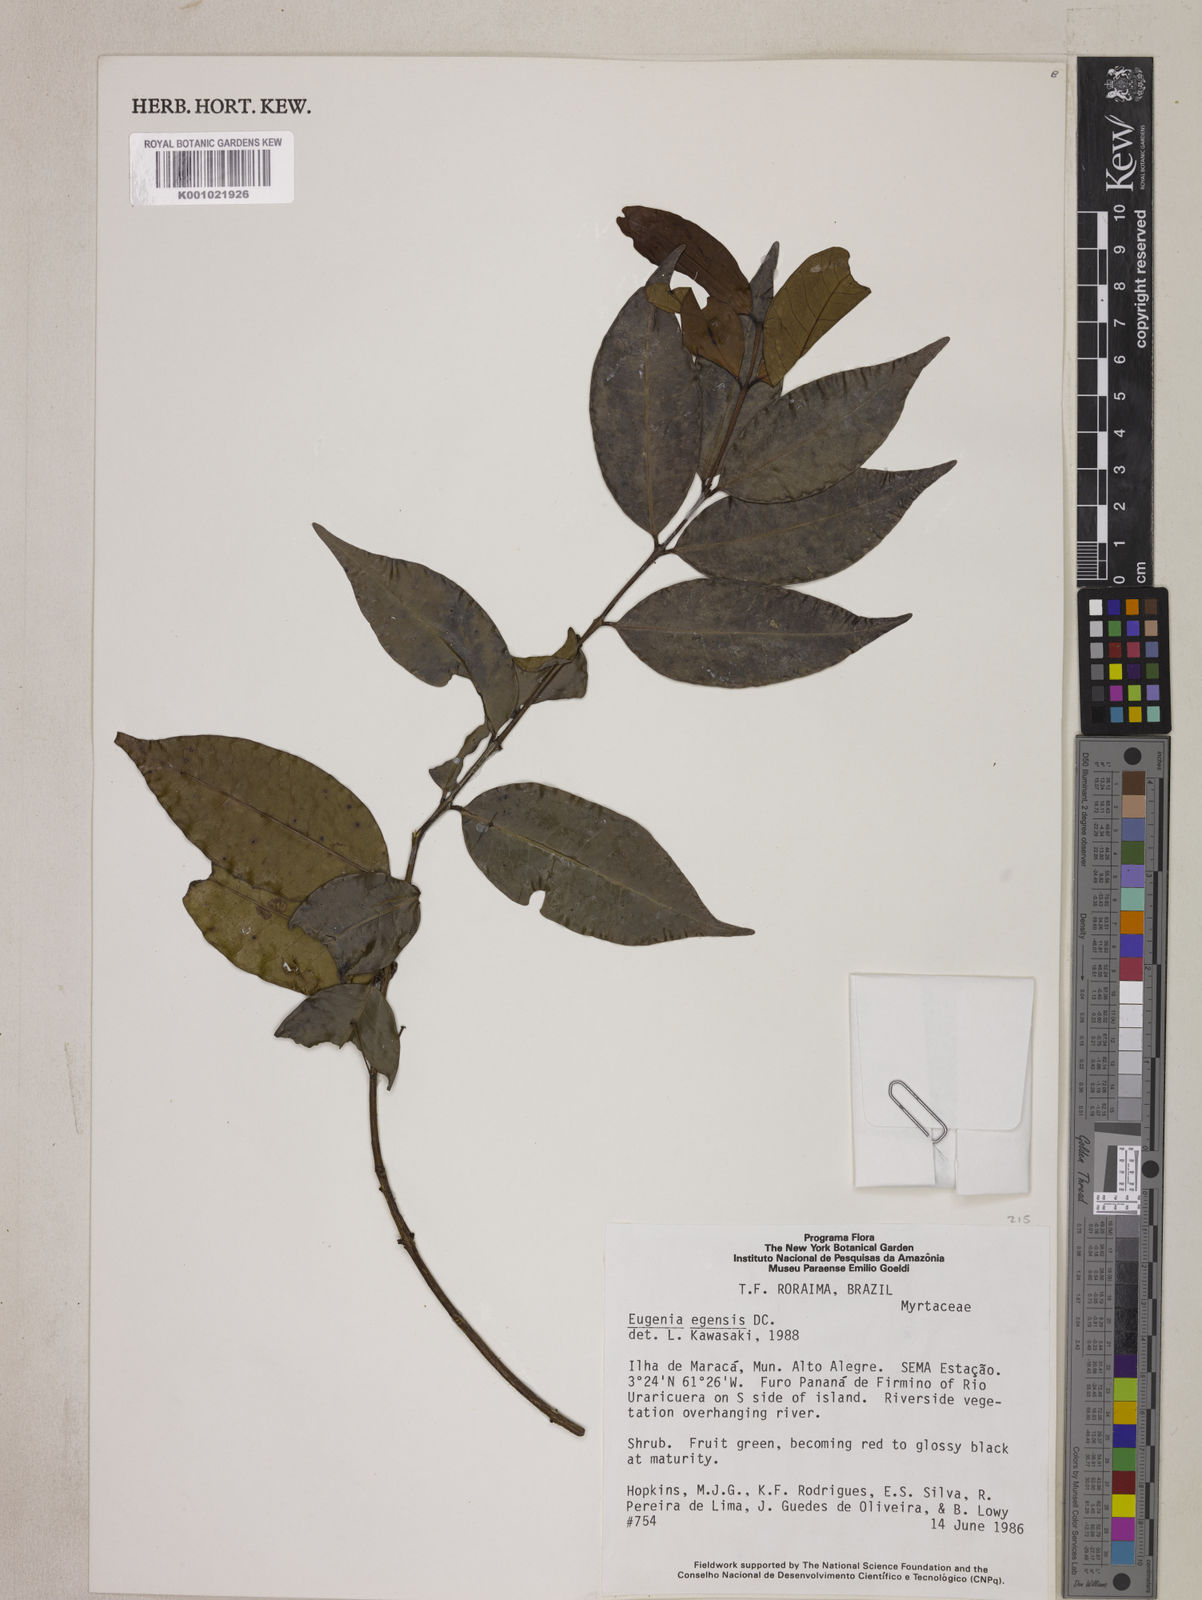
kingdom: Plantae
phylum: Tracheophyta
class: Magnoliopsida
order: Myrtales
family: Myrtaceae
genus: Eugenia
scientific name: Eugenia egensis
